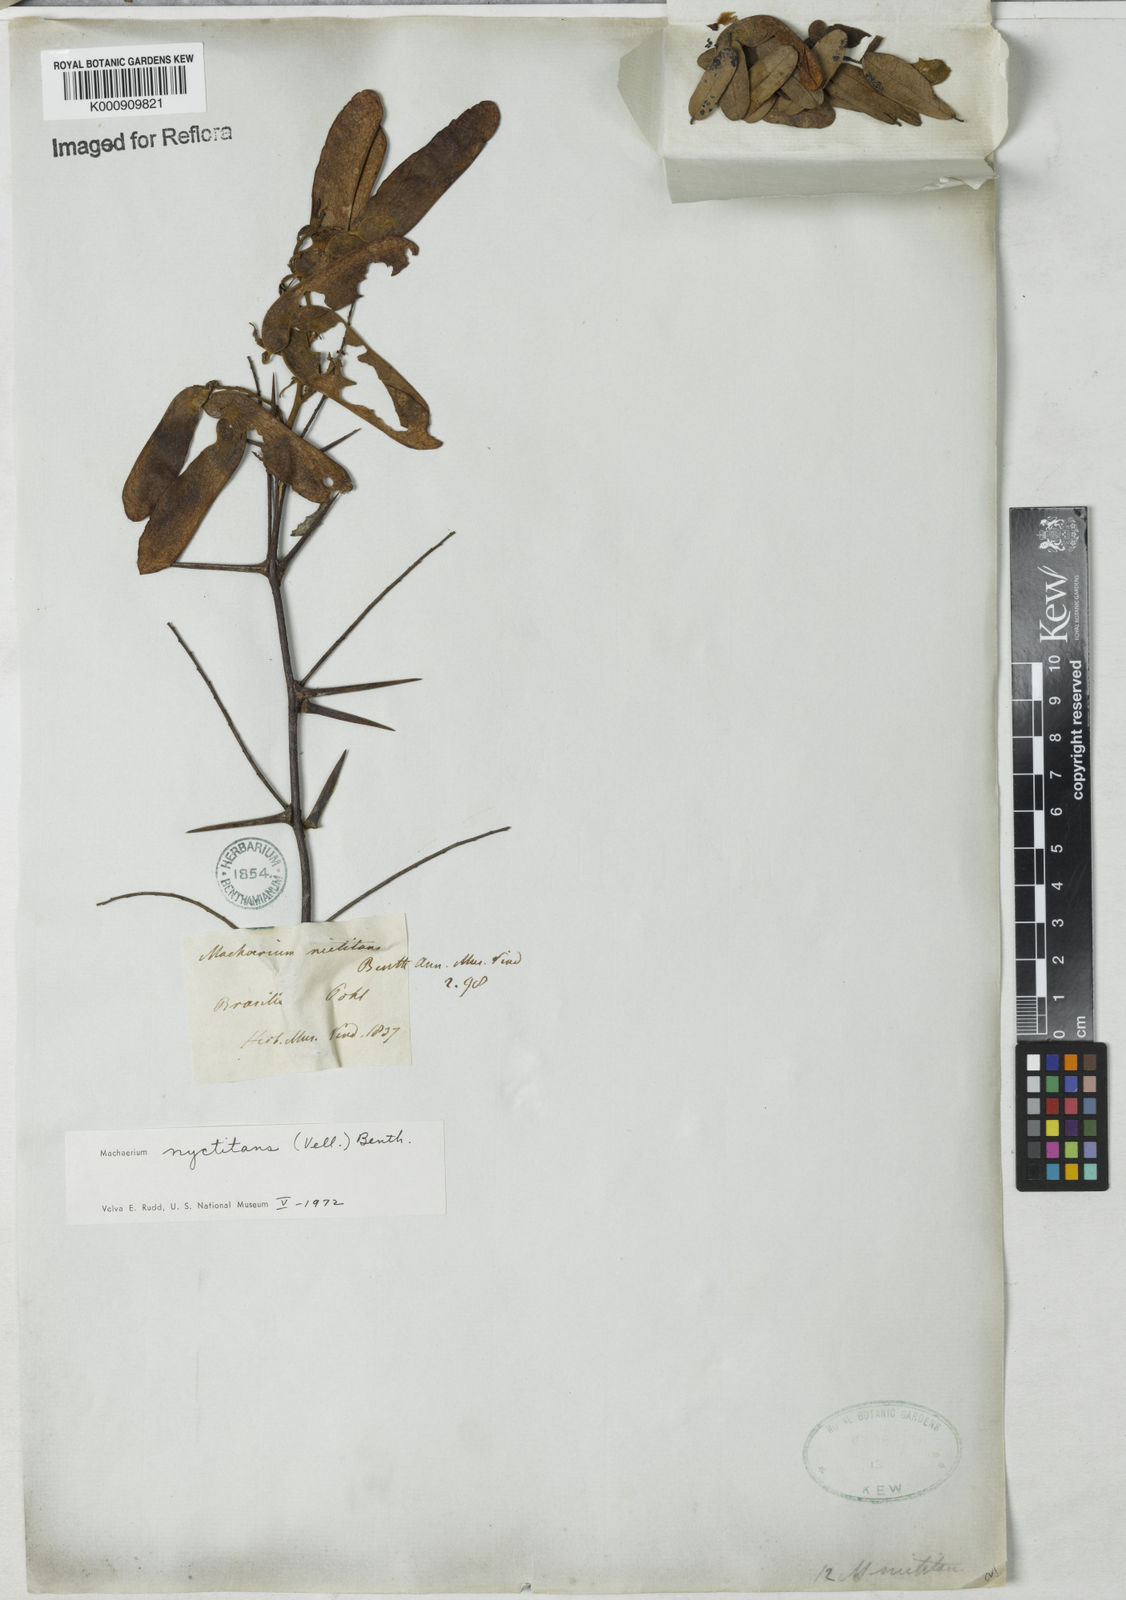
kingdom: Plantae
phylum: Tracheophyta
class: Magnoliopsida
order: Fabales
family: Fabaceae
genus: Machaerium
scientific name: Machaerium nyctitans
